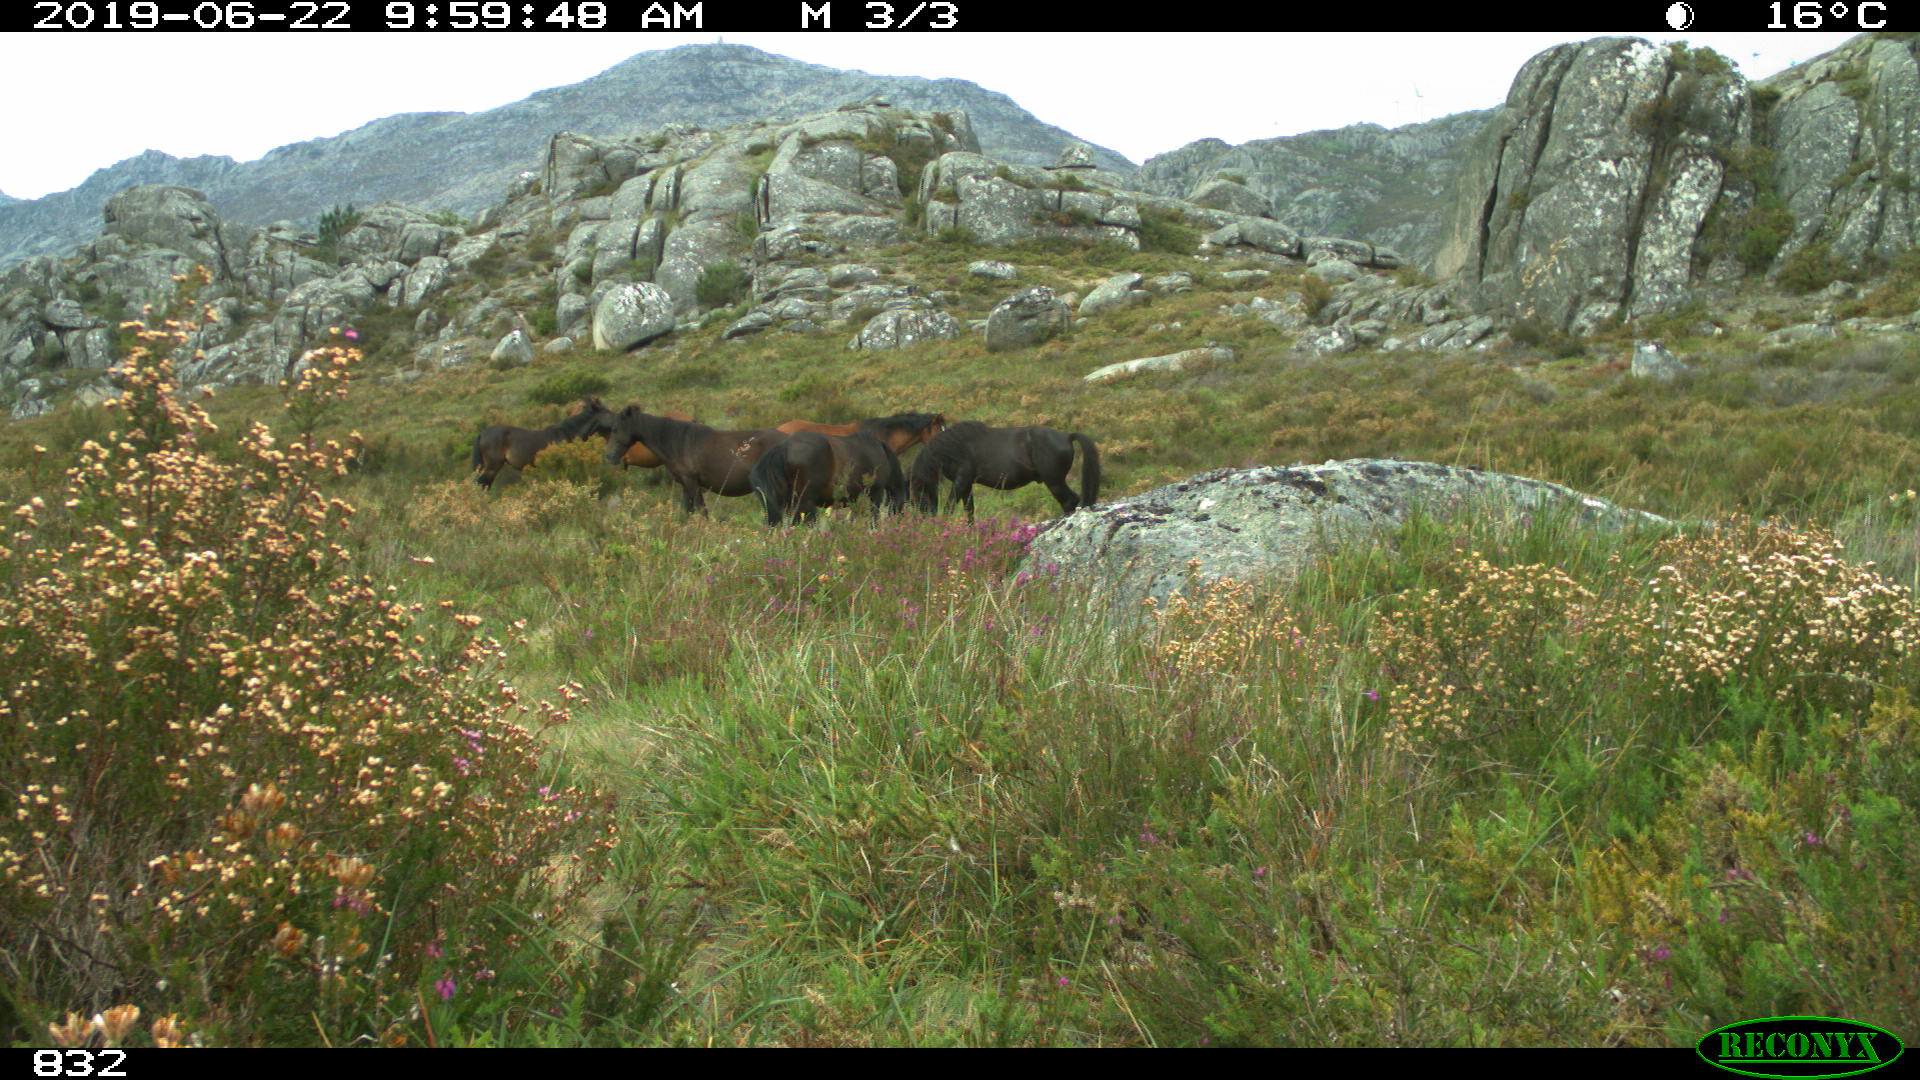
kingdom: Animalia
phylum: Chordata
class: Mammalia
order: Perissodactyla
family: Equidae
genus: Equus
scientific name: Equus caballus
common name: Horse
